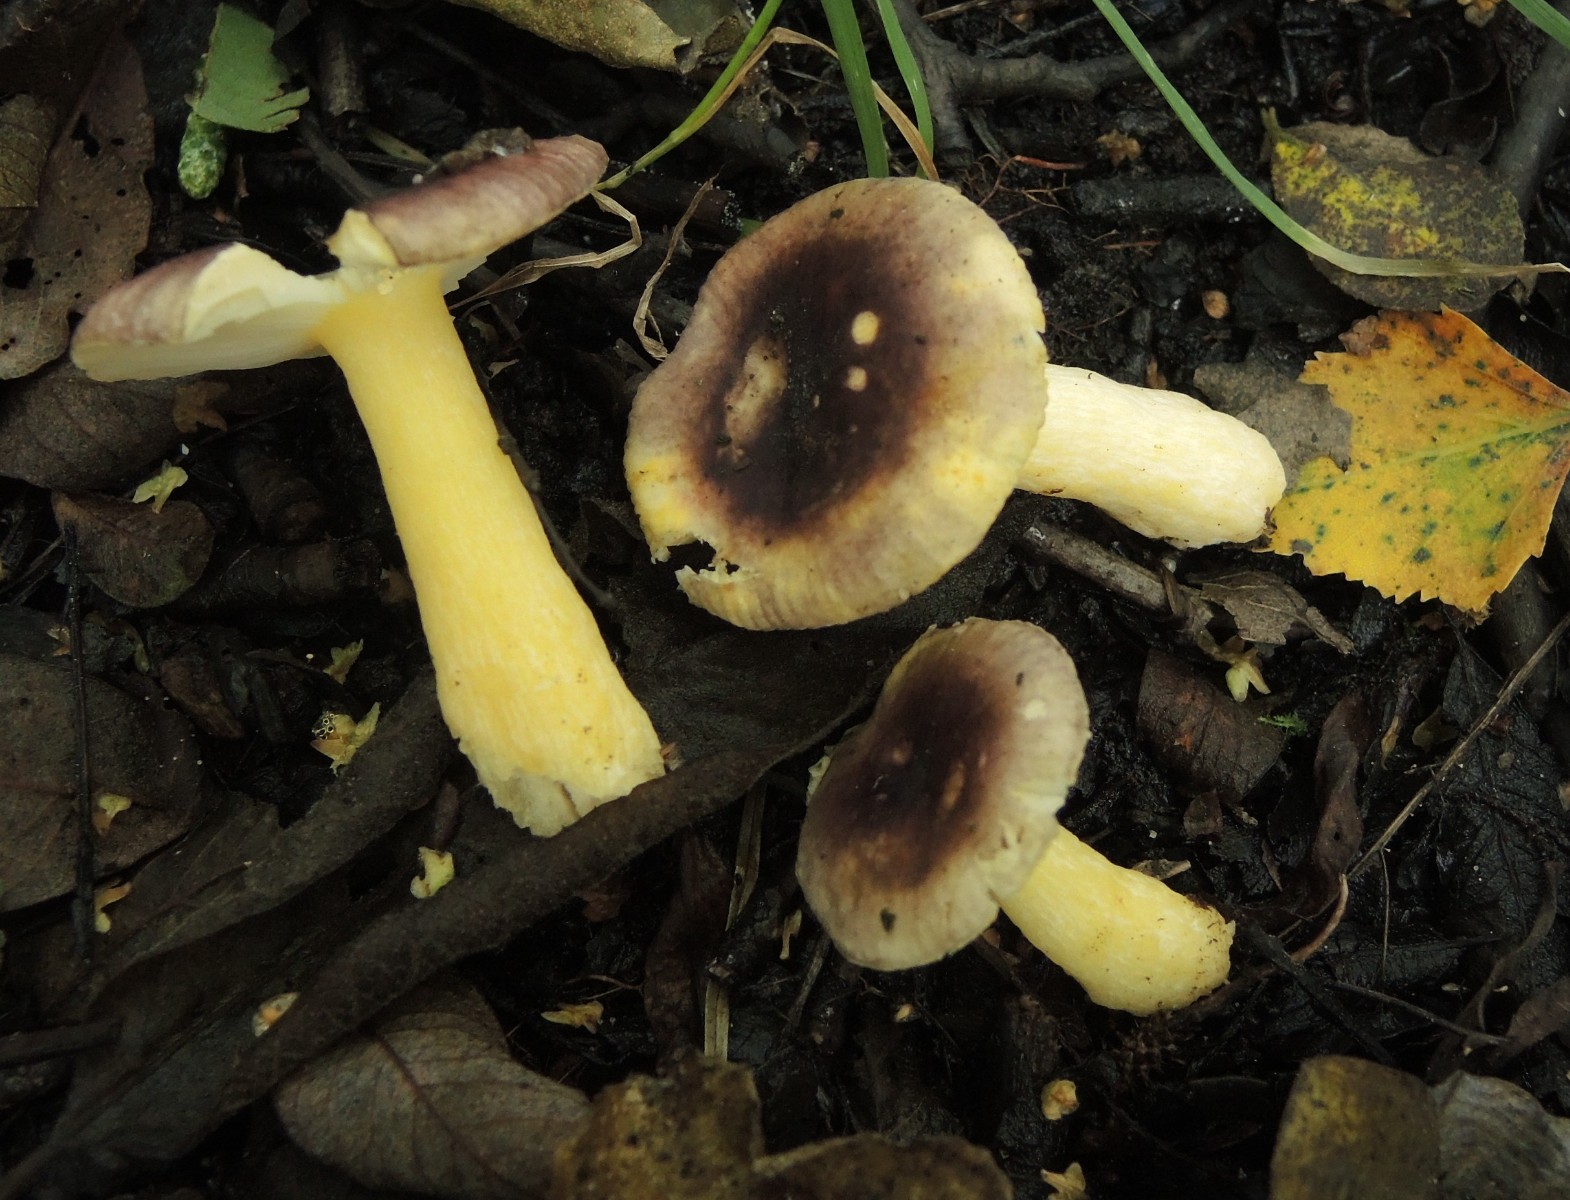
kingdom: Fungi
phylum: Basidiomycota
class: Agaricomycetes
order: Russulales
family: Russulaceae
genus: Russula
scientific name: Russula alnetorum
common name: elle-skørhat
